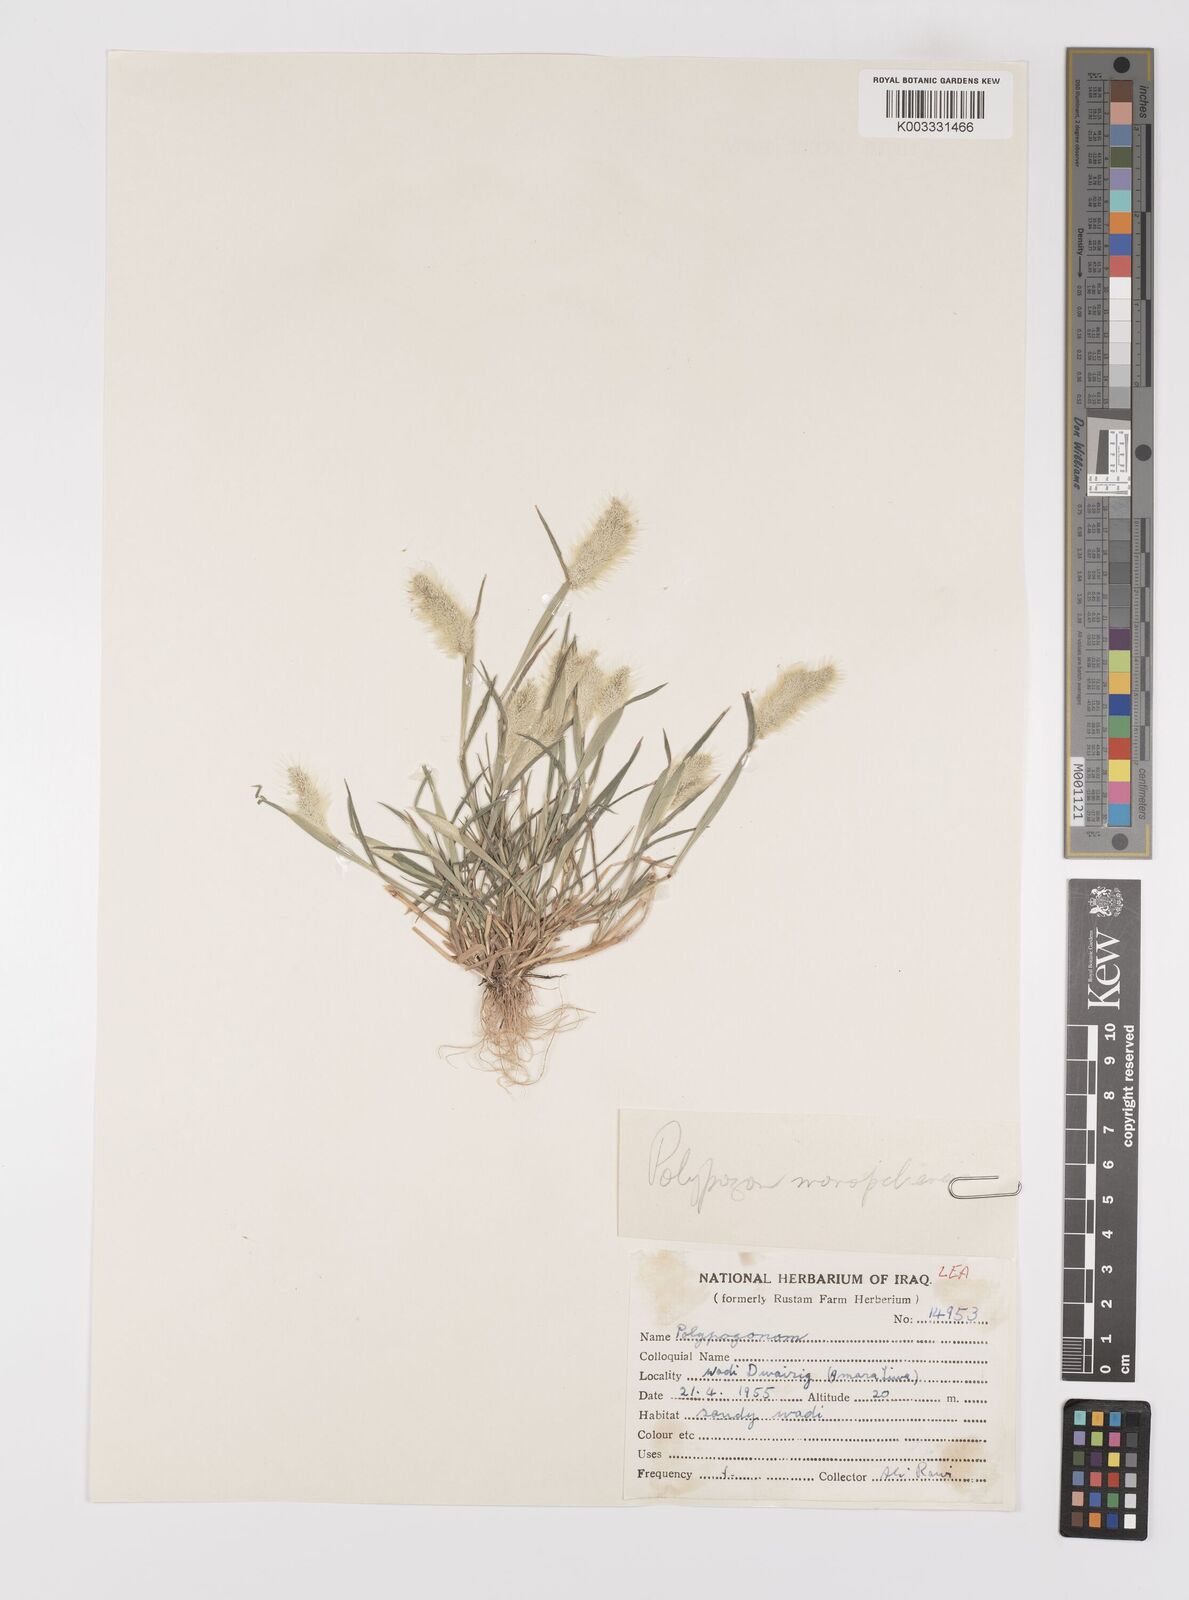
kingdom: Plantae
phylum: Tracheophyta
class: Liliopsida
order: Poales
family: Poaceae
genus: Polypogon
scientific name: Polypogon maritimus
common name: Mediterranean rabbitsfoot grass
